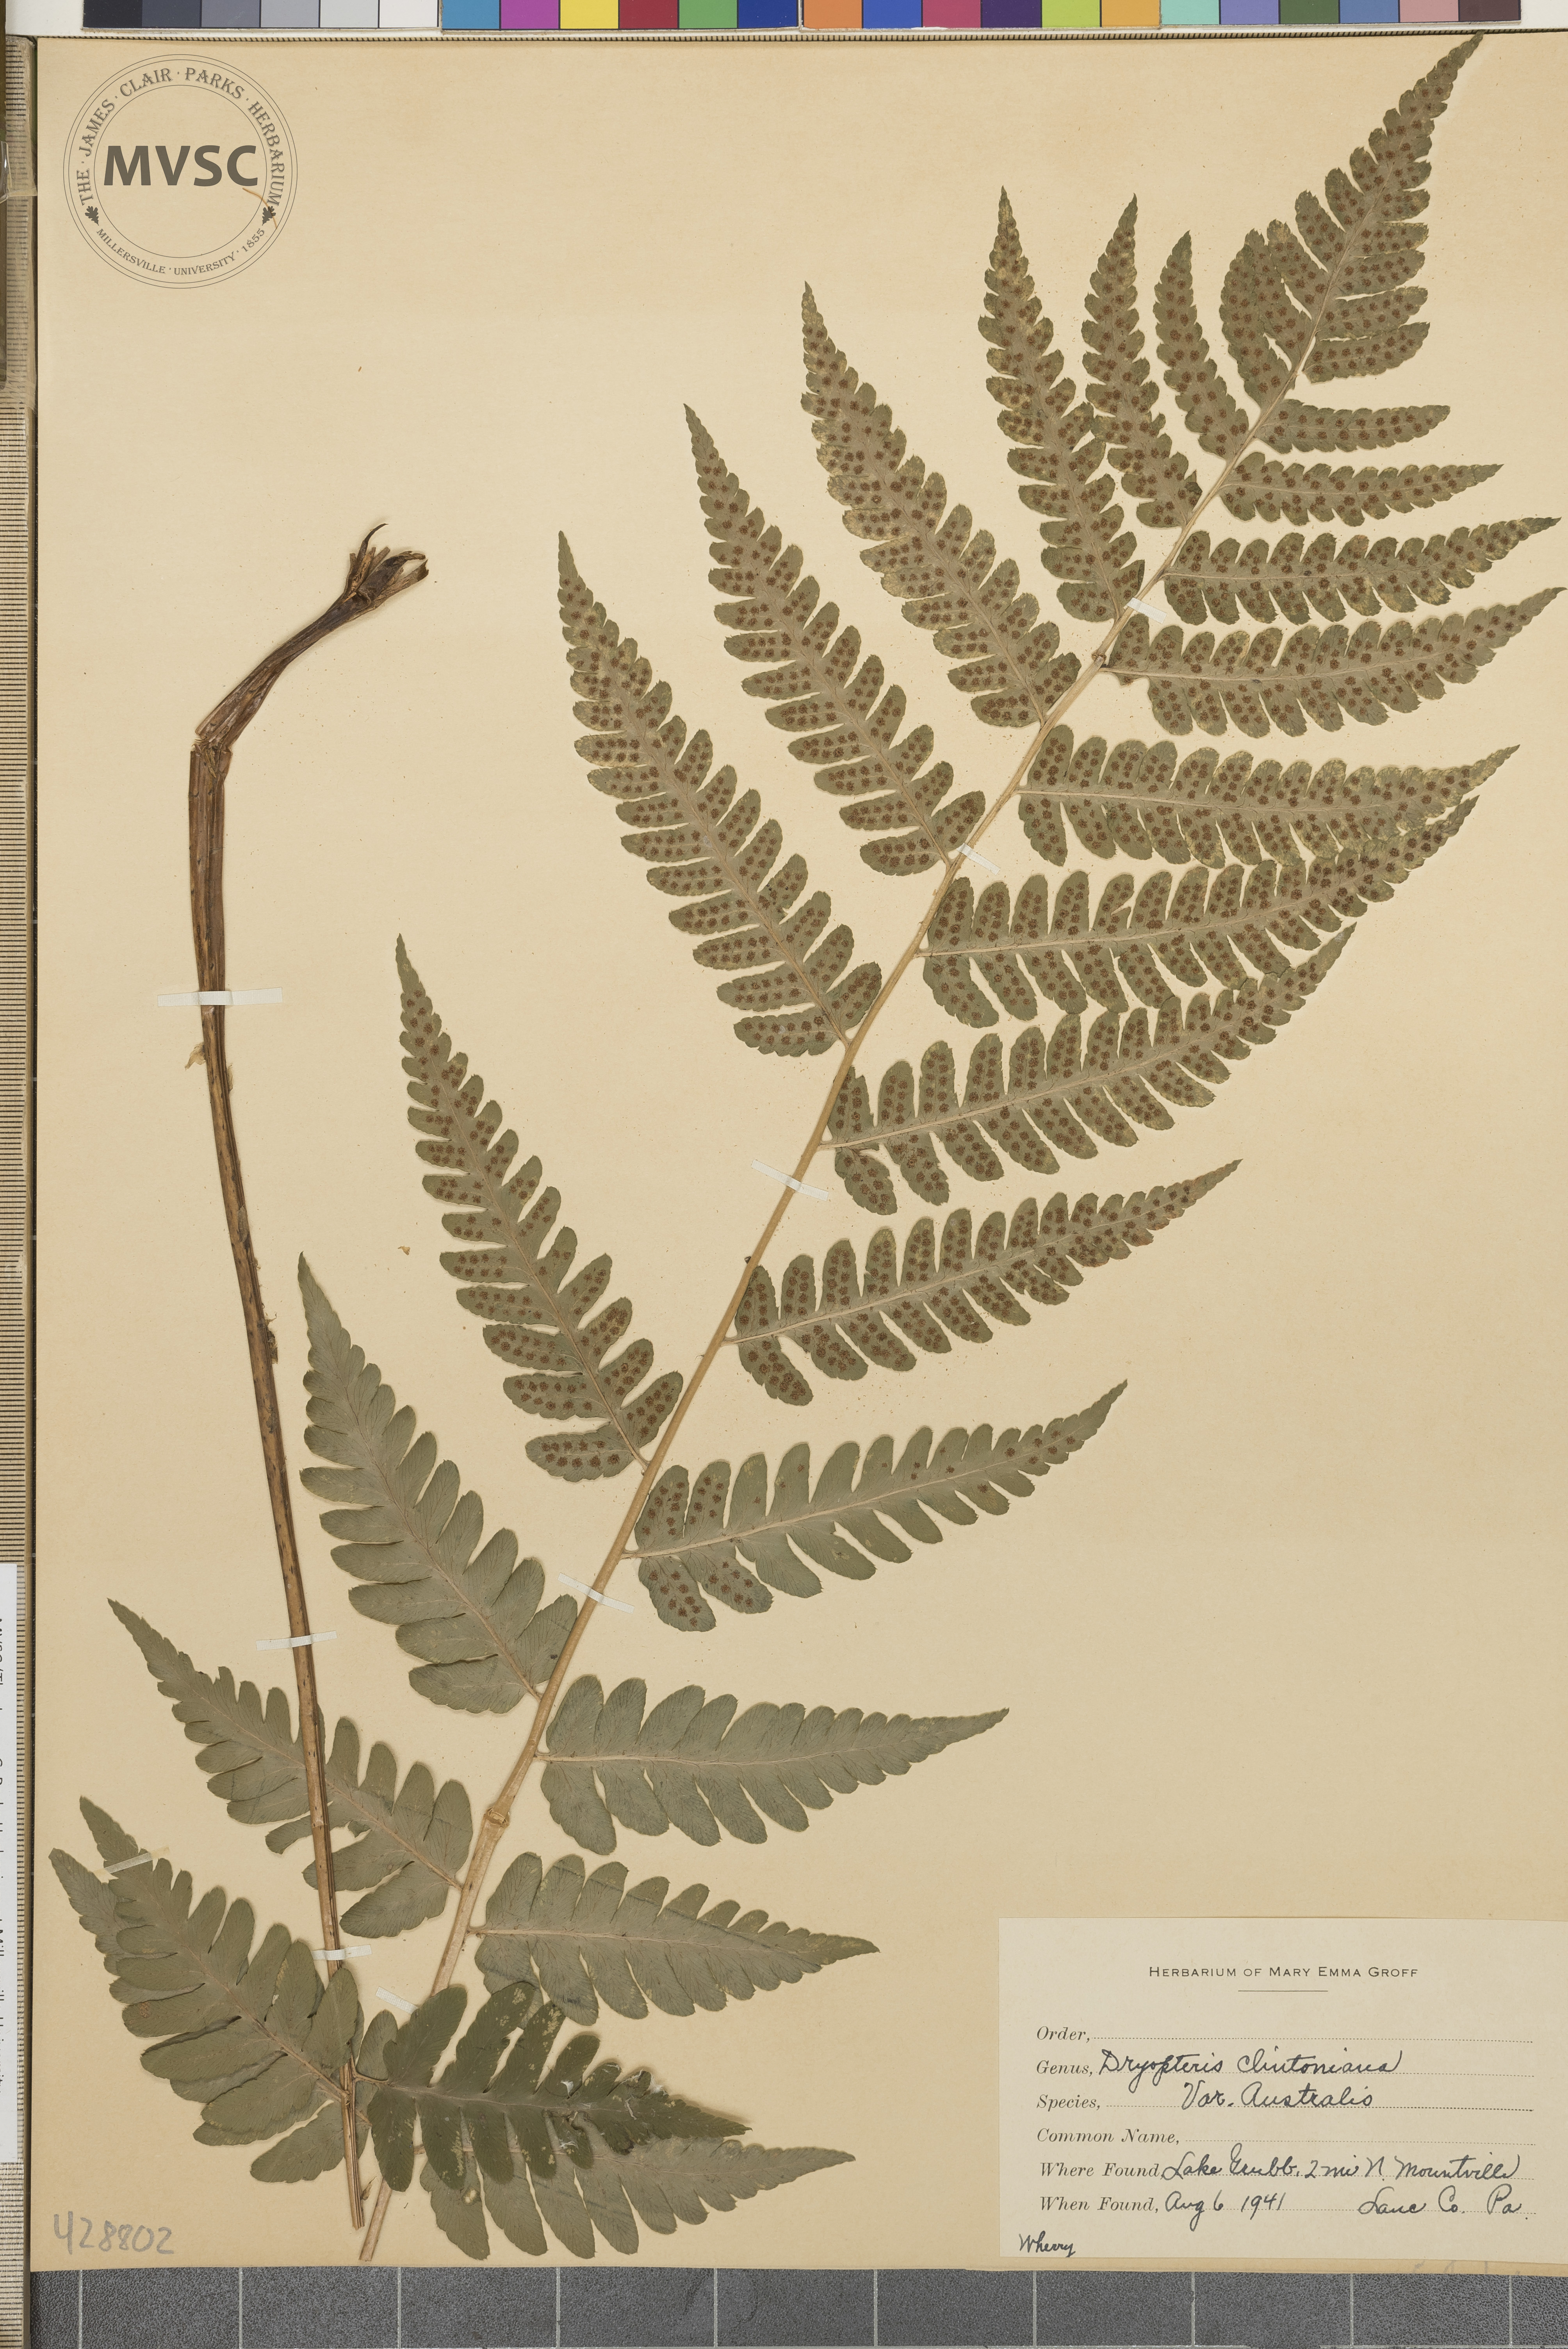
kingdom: Plantae
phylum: Tracheophyta
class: Polypodiopsida
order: Polypodiales
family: Dryopteridaceae
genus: Dryopteris
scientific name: Dryopteris clintoniana
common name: Clinton's wood fern
